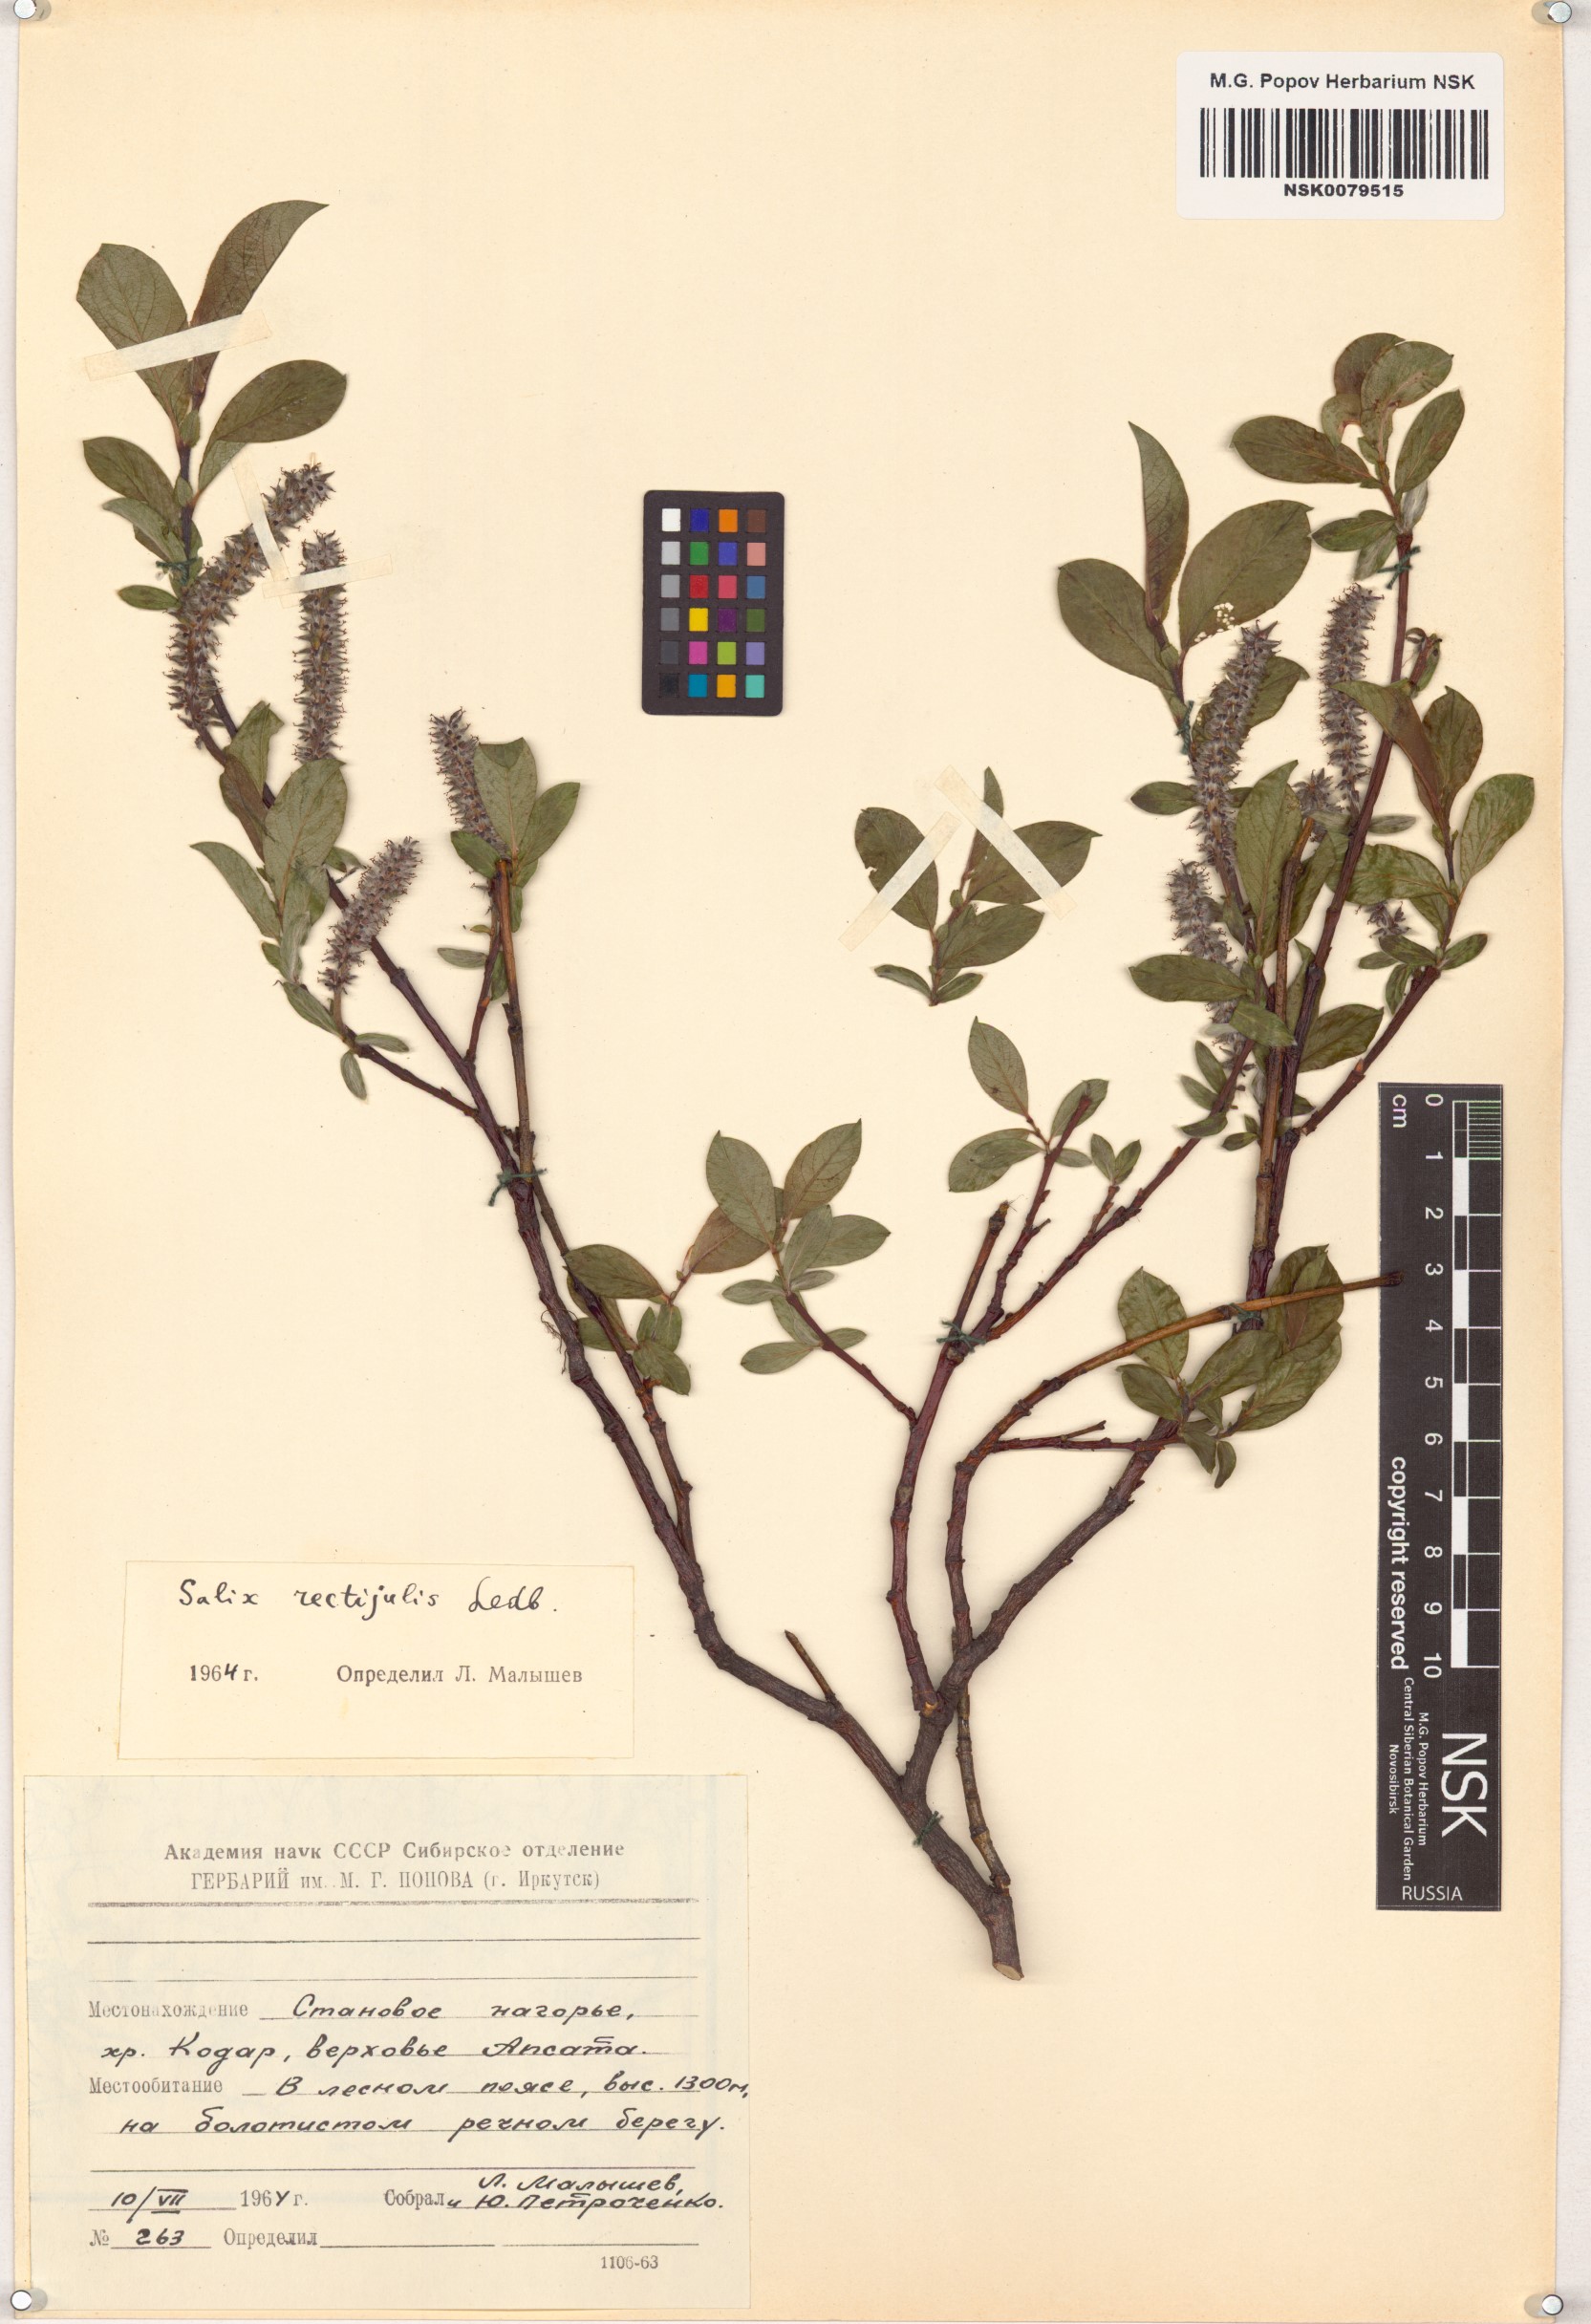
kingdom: Plantae
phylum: Tracheophyta
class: Magnoliopsida
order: Malpighiales
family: Salicaceae
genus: Salix
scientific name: Salix rectijulis
